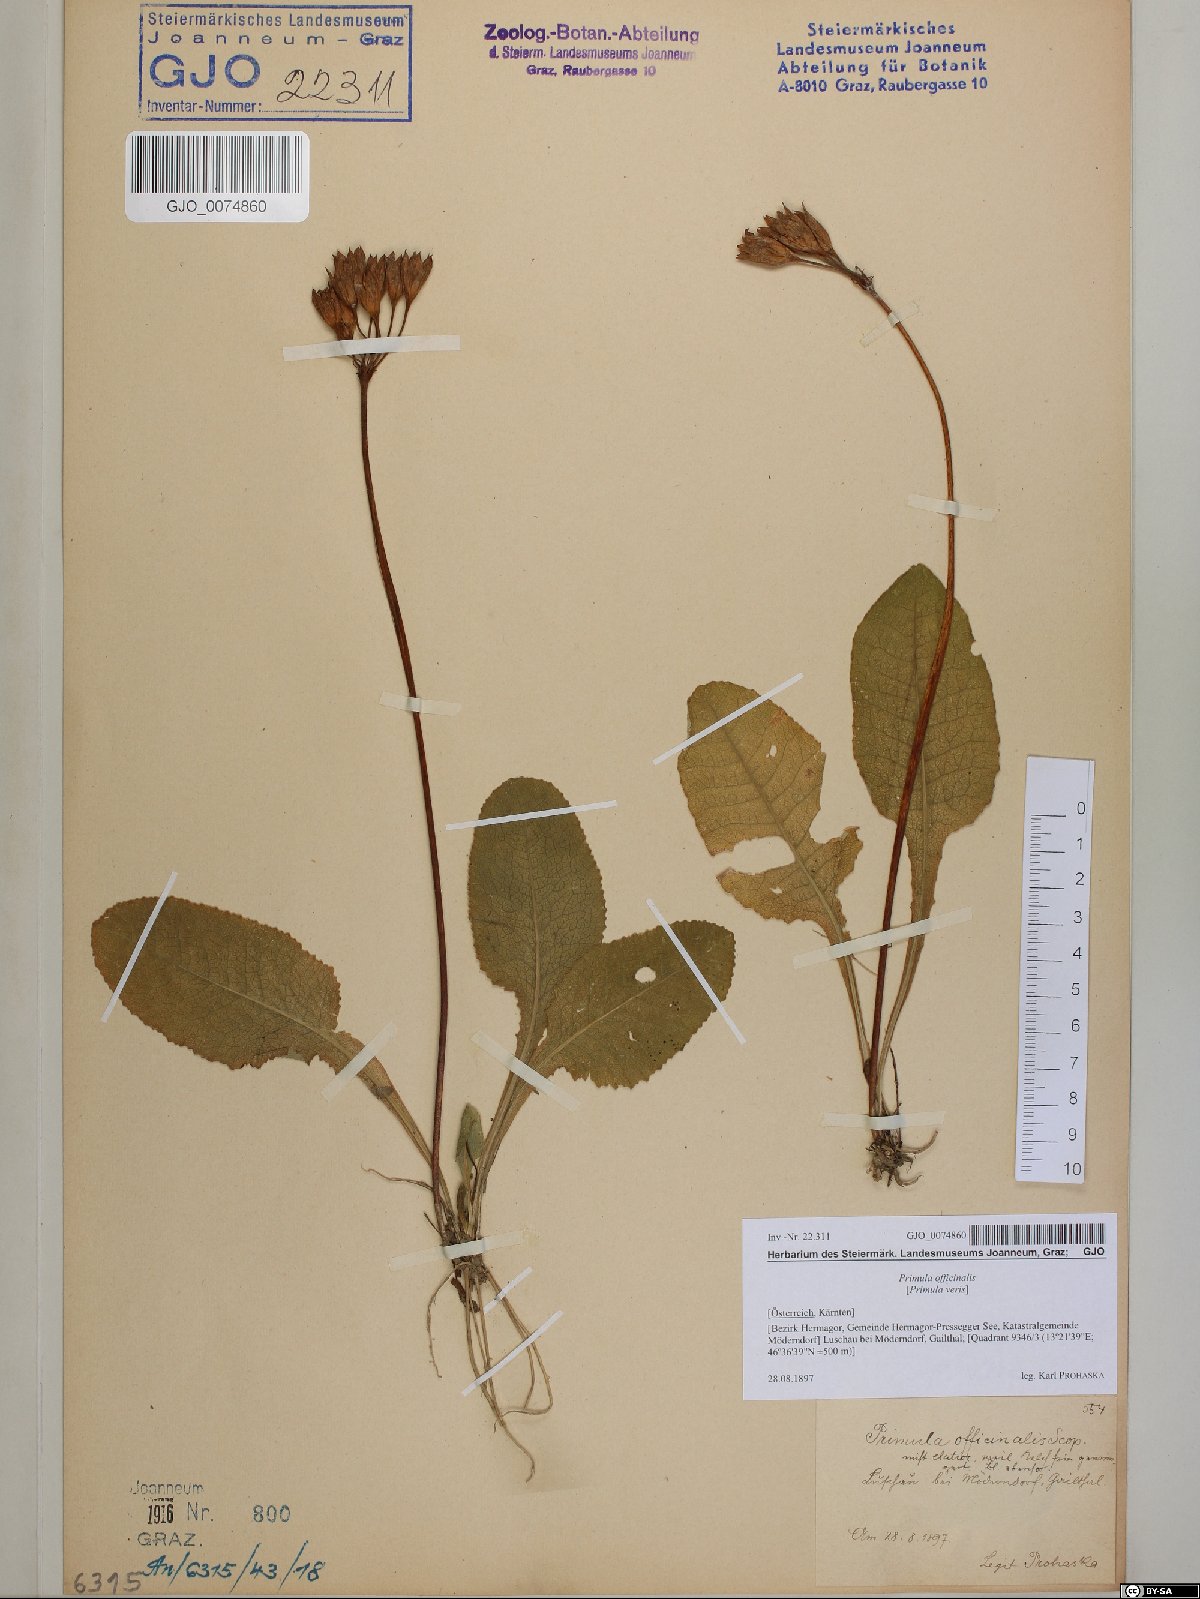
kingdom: Plantae
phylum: Tracheophyta
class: Magnoliopsida
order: Ericales
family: Primulaceae
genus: Primula
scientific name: Primula veris
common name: Cowslip
